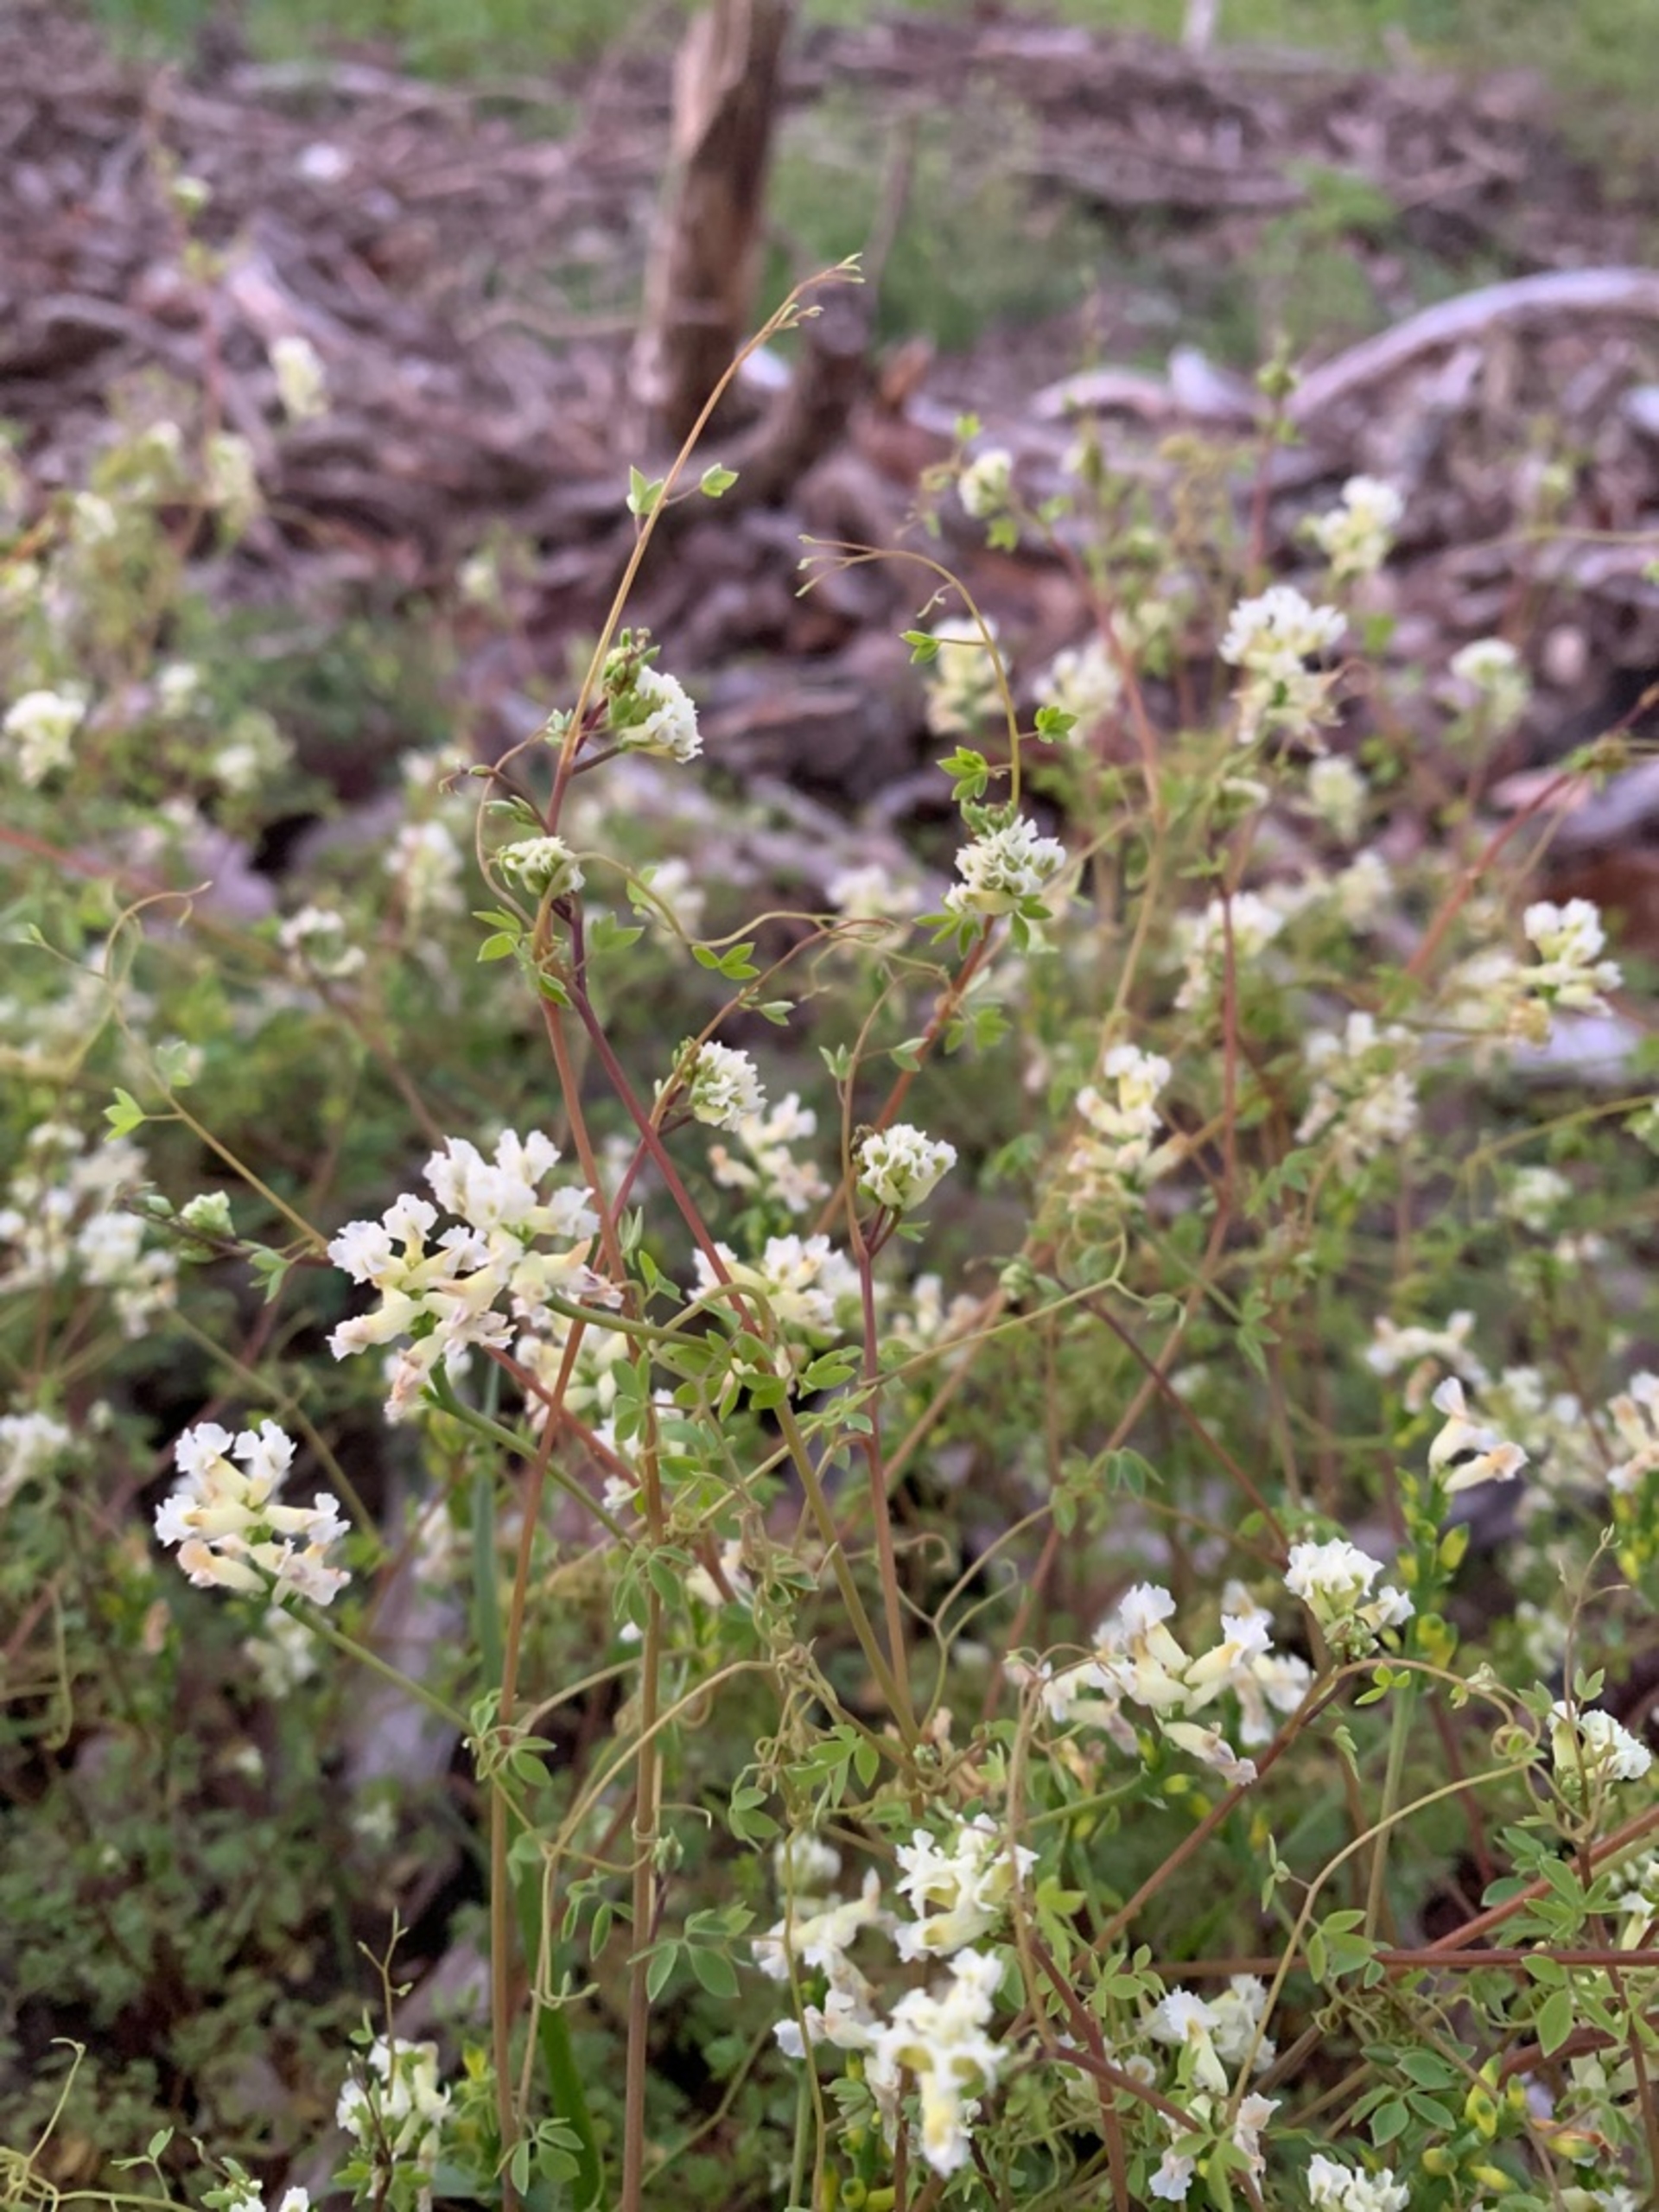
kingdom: Plantae
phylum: Tracheophyta
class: Magnoliopsida
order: Ranunculales
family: Papaveraceae
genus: Ceratocapnos
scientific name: Ceratocapnos claviculata
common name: Klatrende lærkespore
